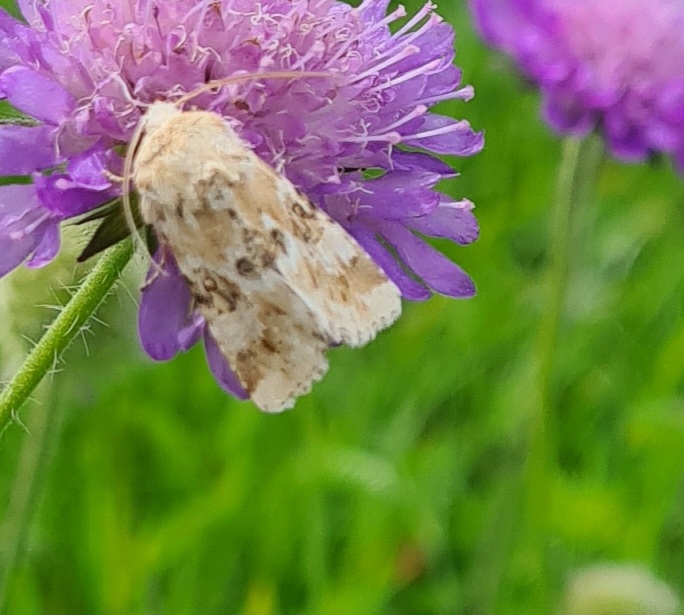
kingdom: Animalia
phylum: Arthropoda
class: Insecta
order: Lepidoptera
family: Noctuidae
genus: Eremobia
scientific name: Eremobia ochroleuca
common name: Blomster-stængelugle
